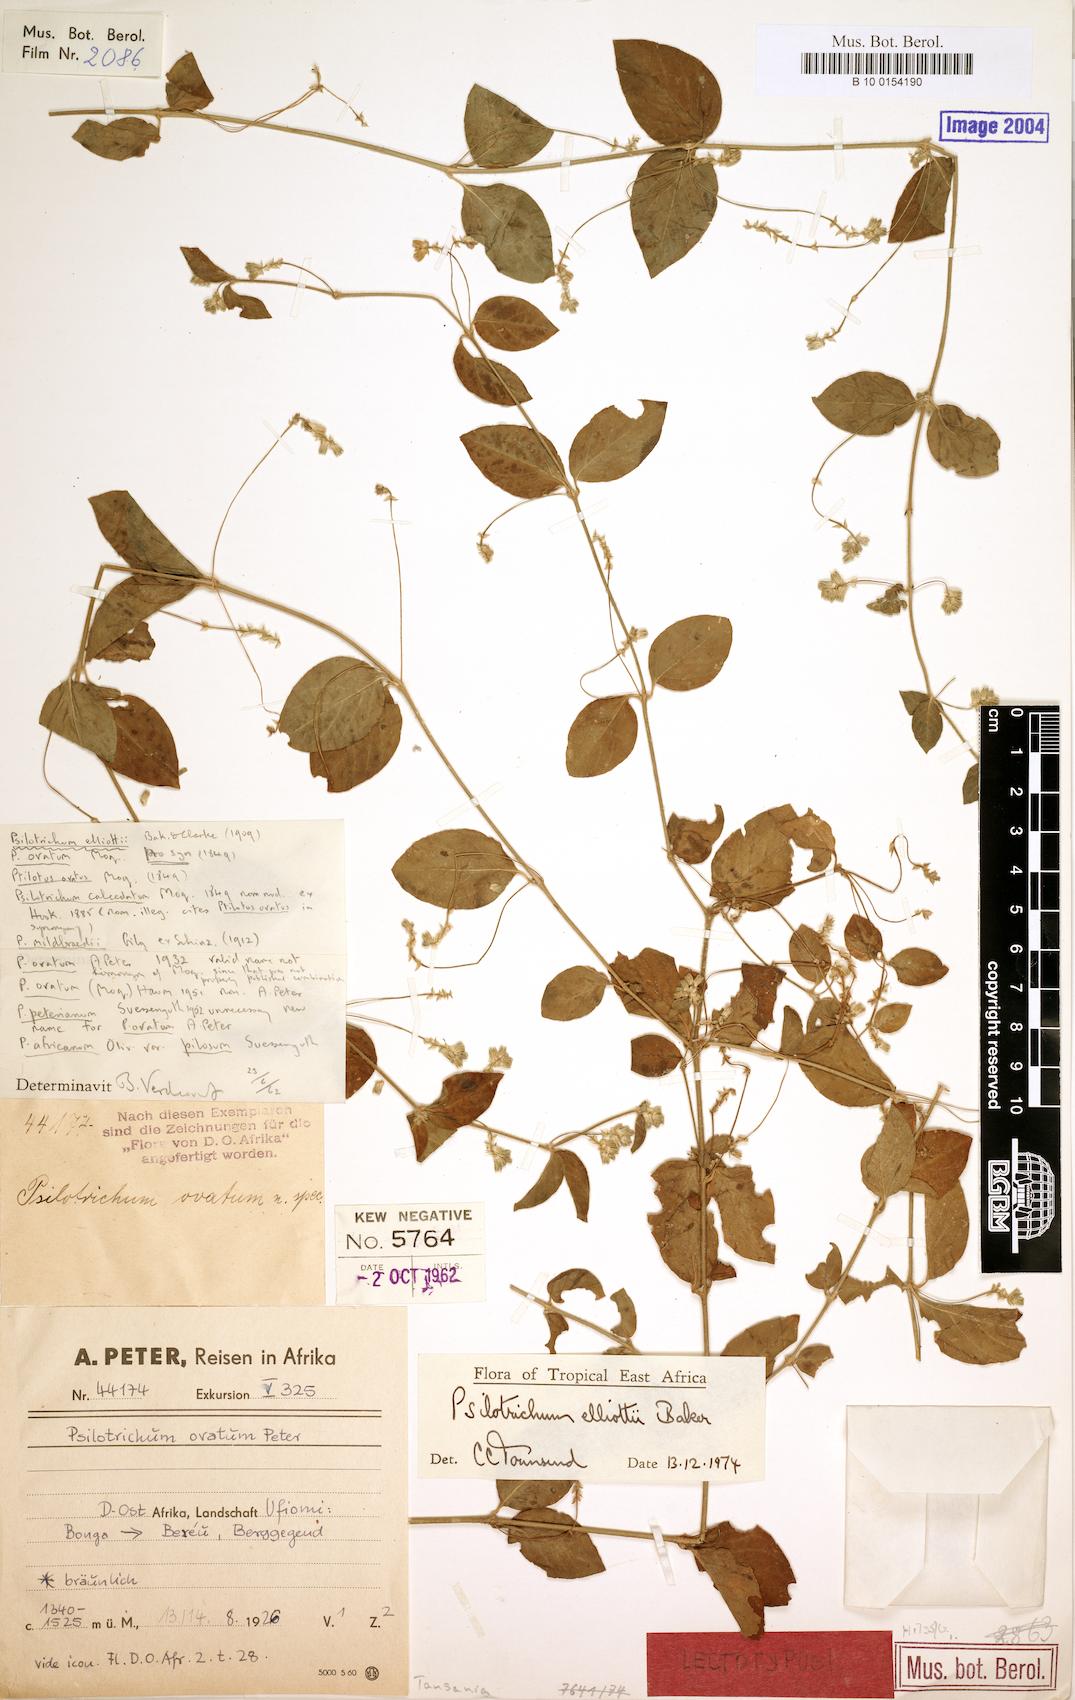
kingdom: Plantae
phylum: Tracheophyta
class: Magnoliopsida
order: Caryophyllales
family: Amaranthaceae
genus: Psilotrichum
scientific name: Psilotrichum patulum
